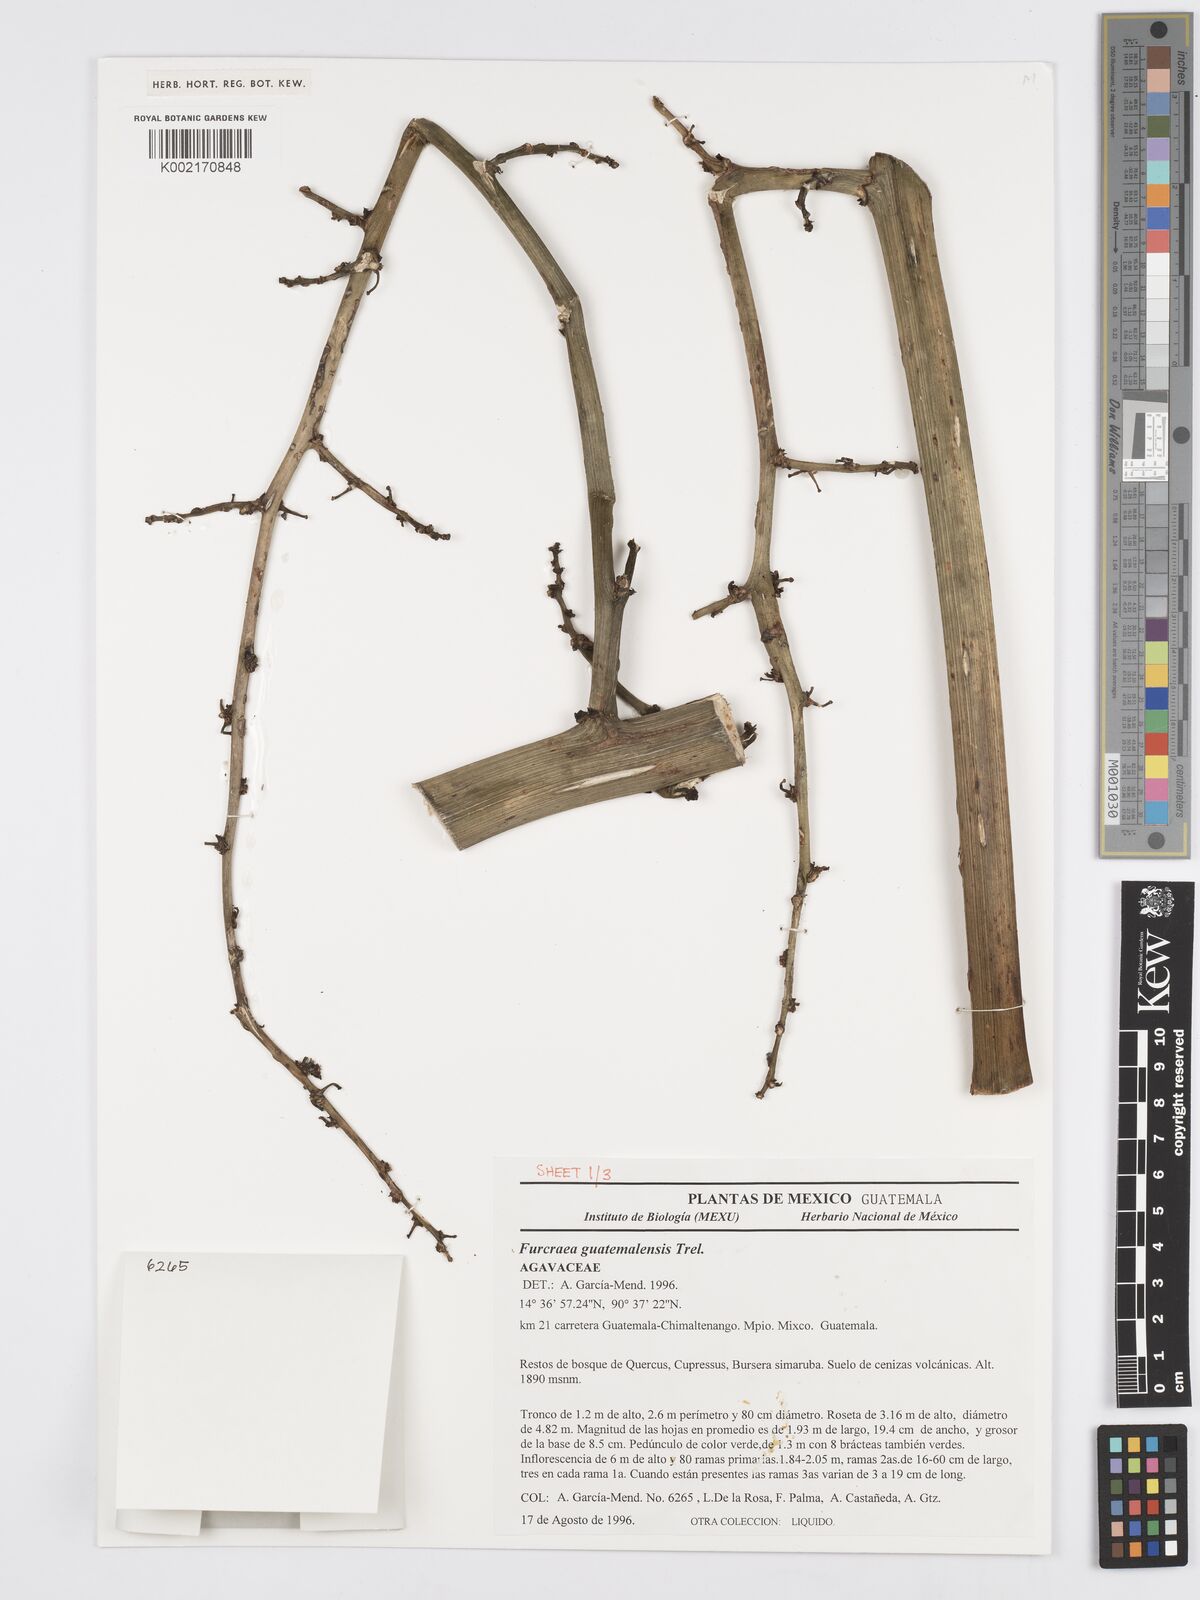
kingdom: Plantae
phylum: Tracheophyta
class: Liliopsida
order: Asparagales
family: Asparagaceae
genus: Furcraea
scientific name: Furcraea guatemalensis
